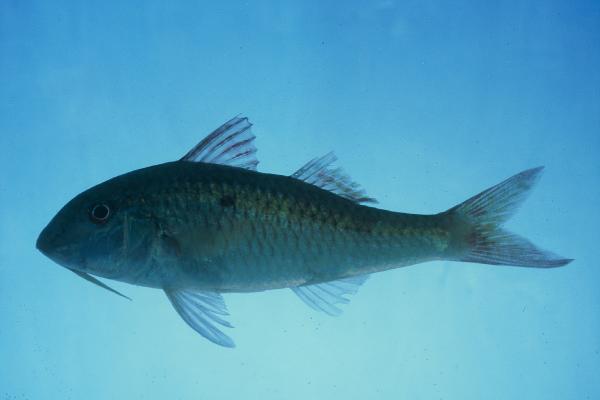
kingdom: Animalia
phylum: Chordata
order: Perciformes
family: Mullidae
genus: Parupeneus
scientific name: Parupeneus heptacanthus
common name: Cinnabar goatfish
